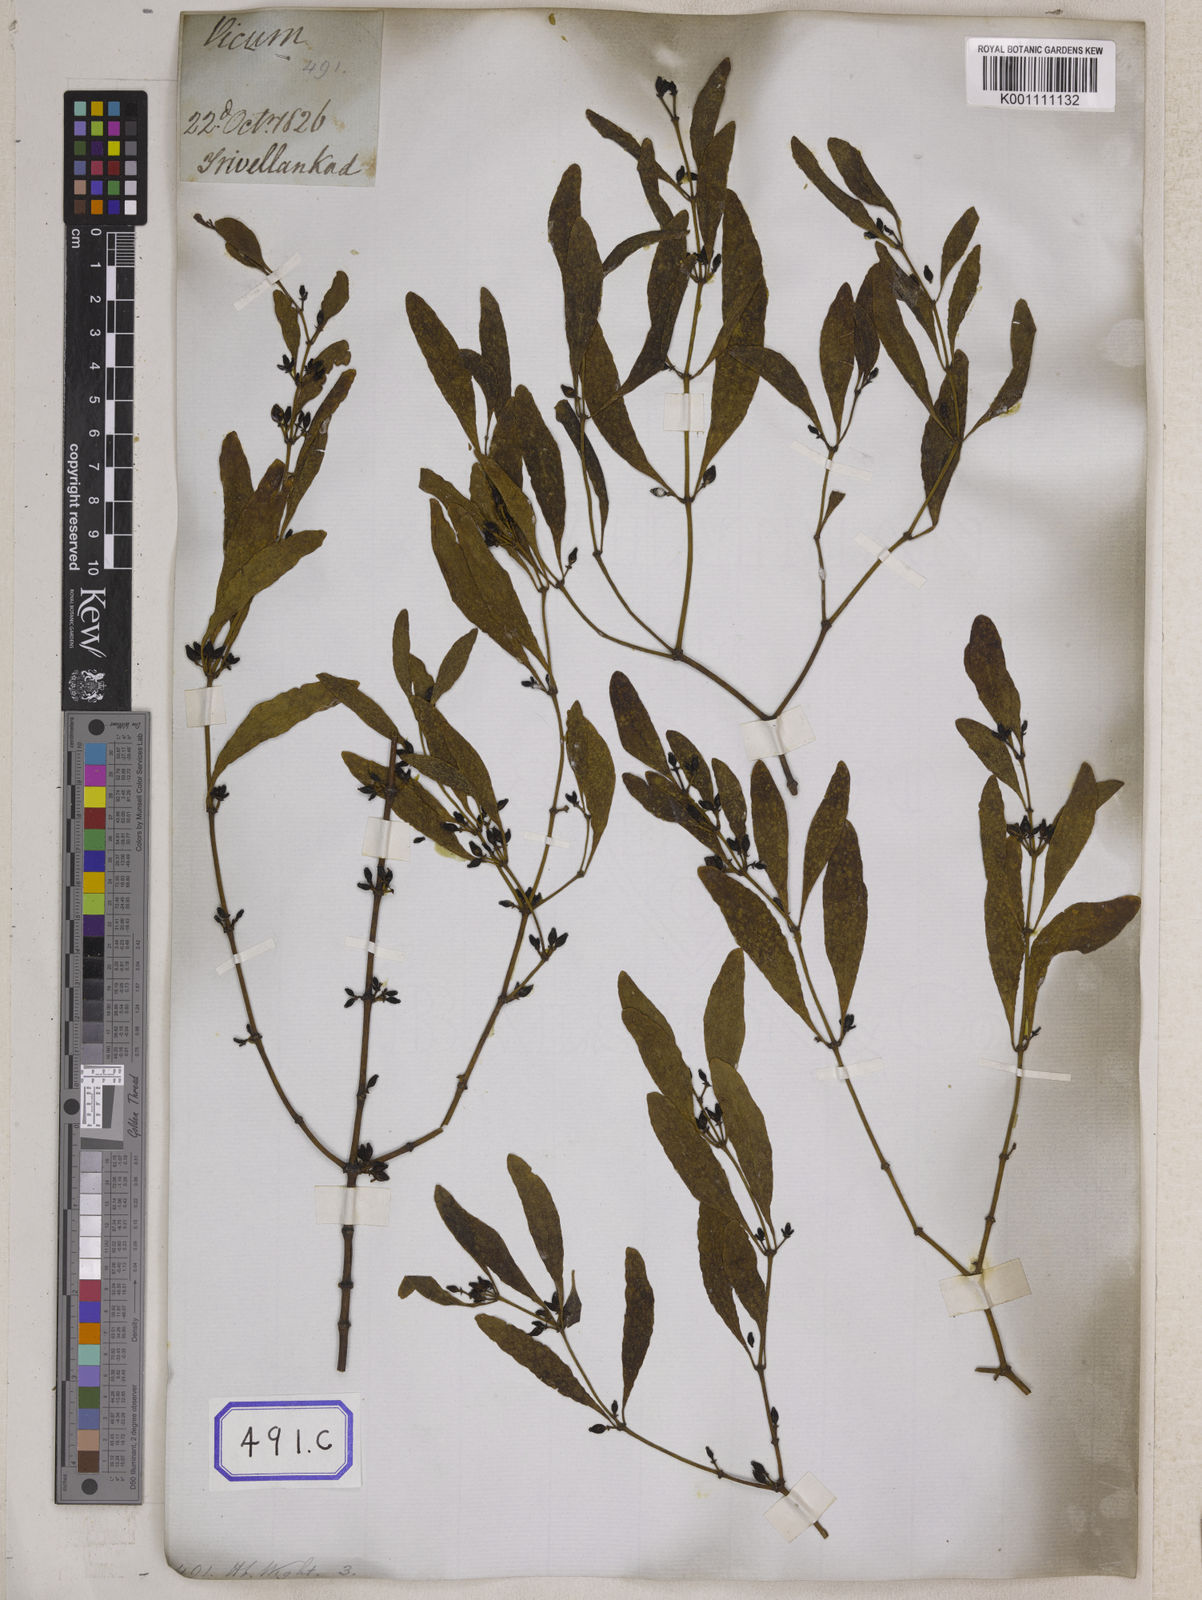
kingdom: Plantae
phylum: Tracheophyta
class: Magnoliopsida
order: Santalales
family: Viscaceae
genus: Viscum
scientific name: Viscum
